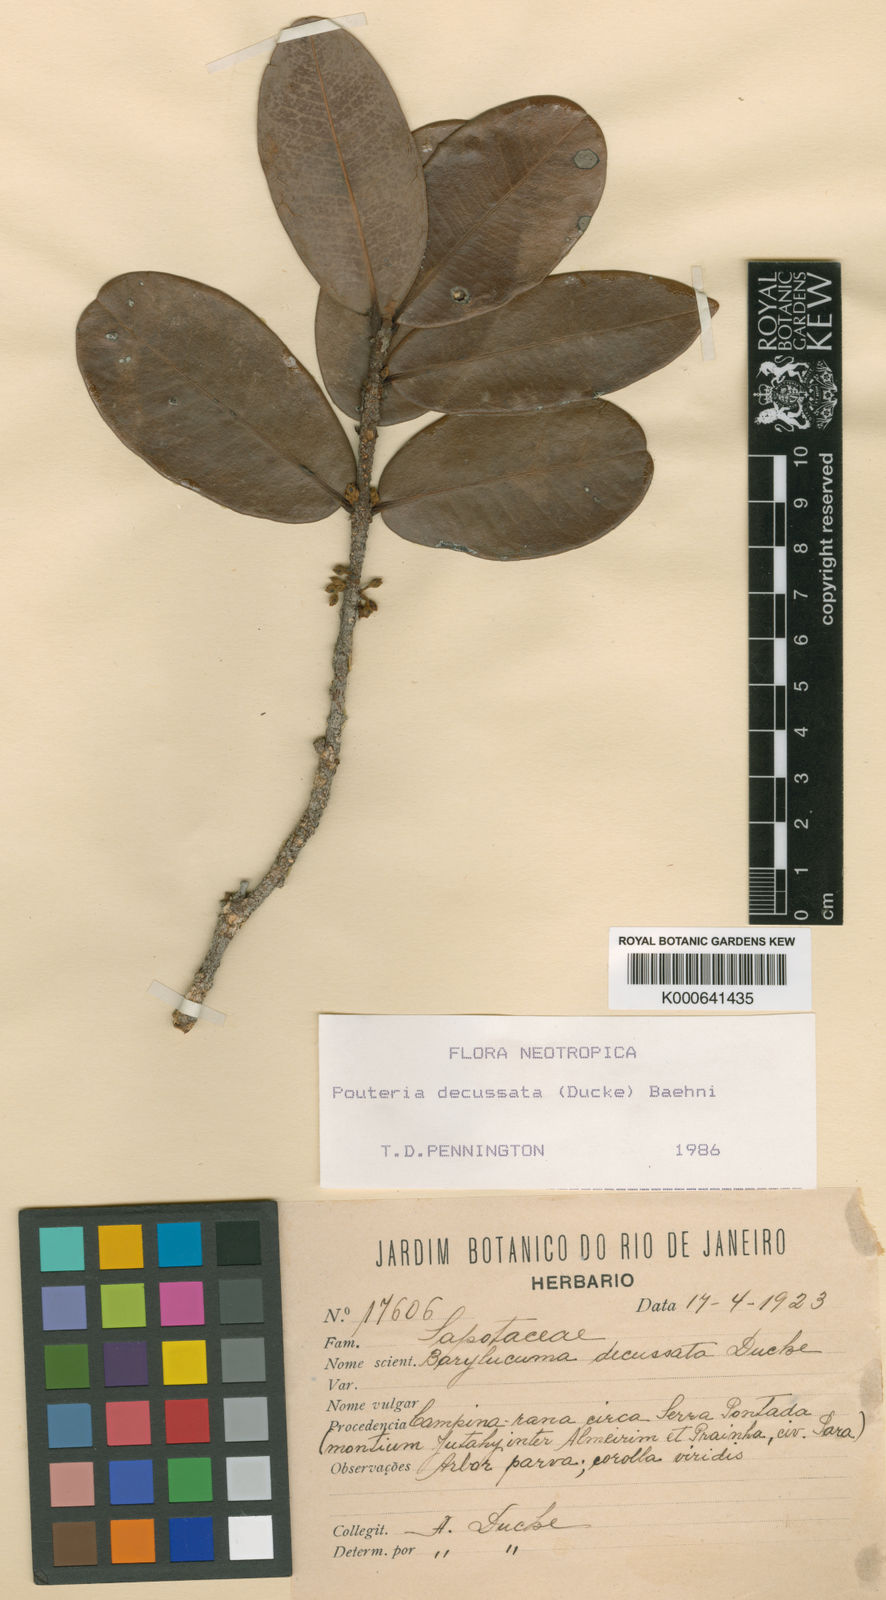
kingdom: Plantae
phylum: Tracheophyta
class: Magnoliopsida
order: Ericales
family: Sapotaceae
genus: Pouteria
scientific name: Pouteria decussata
